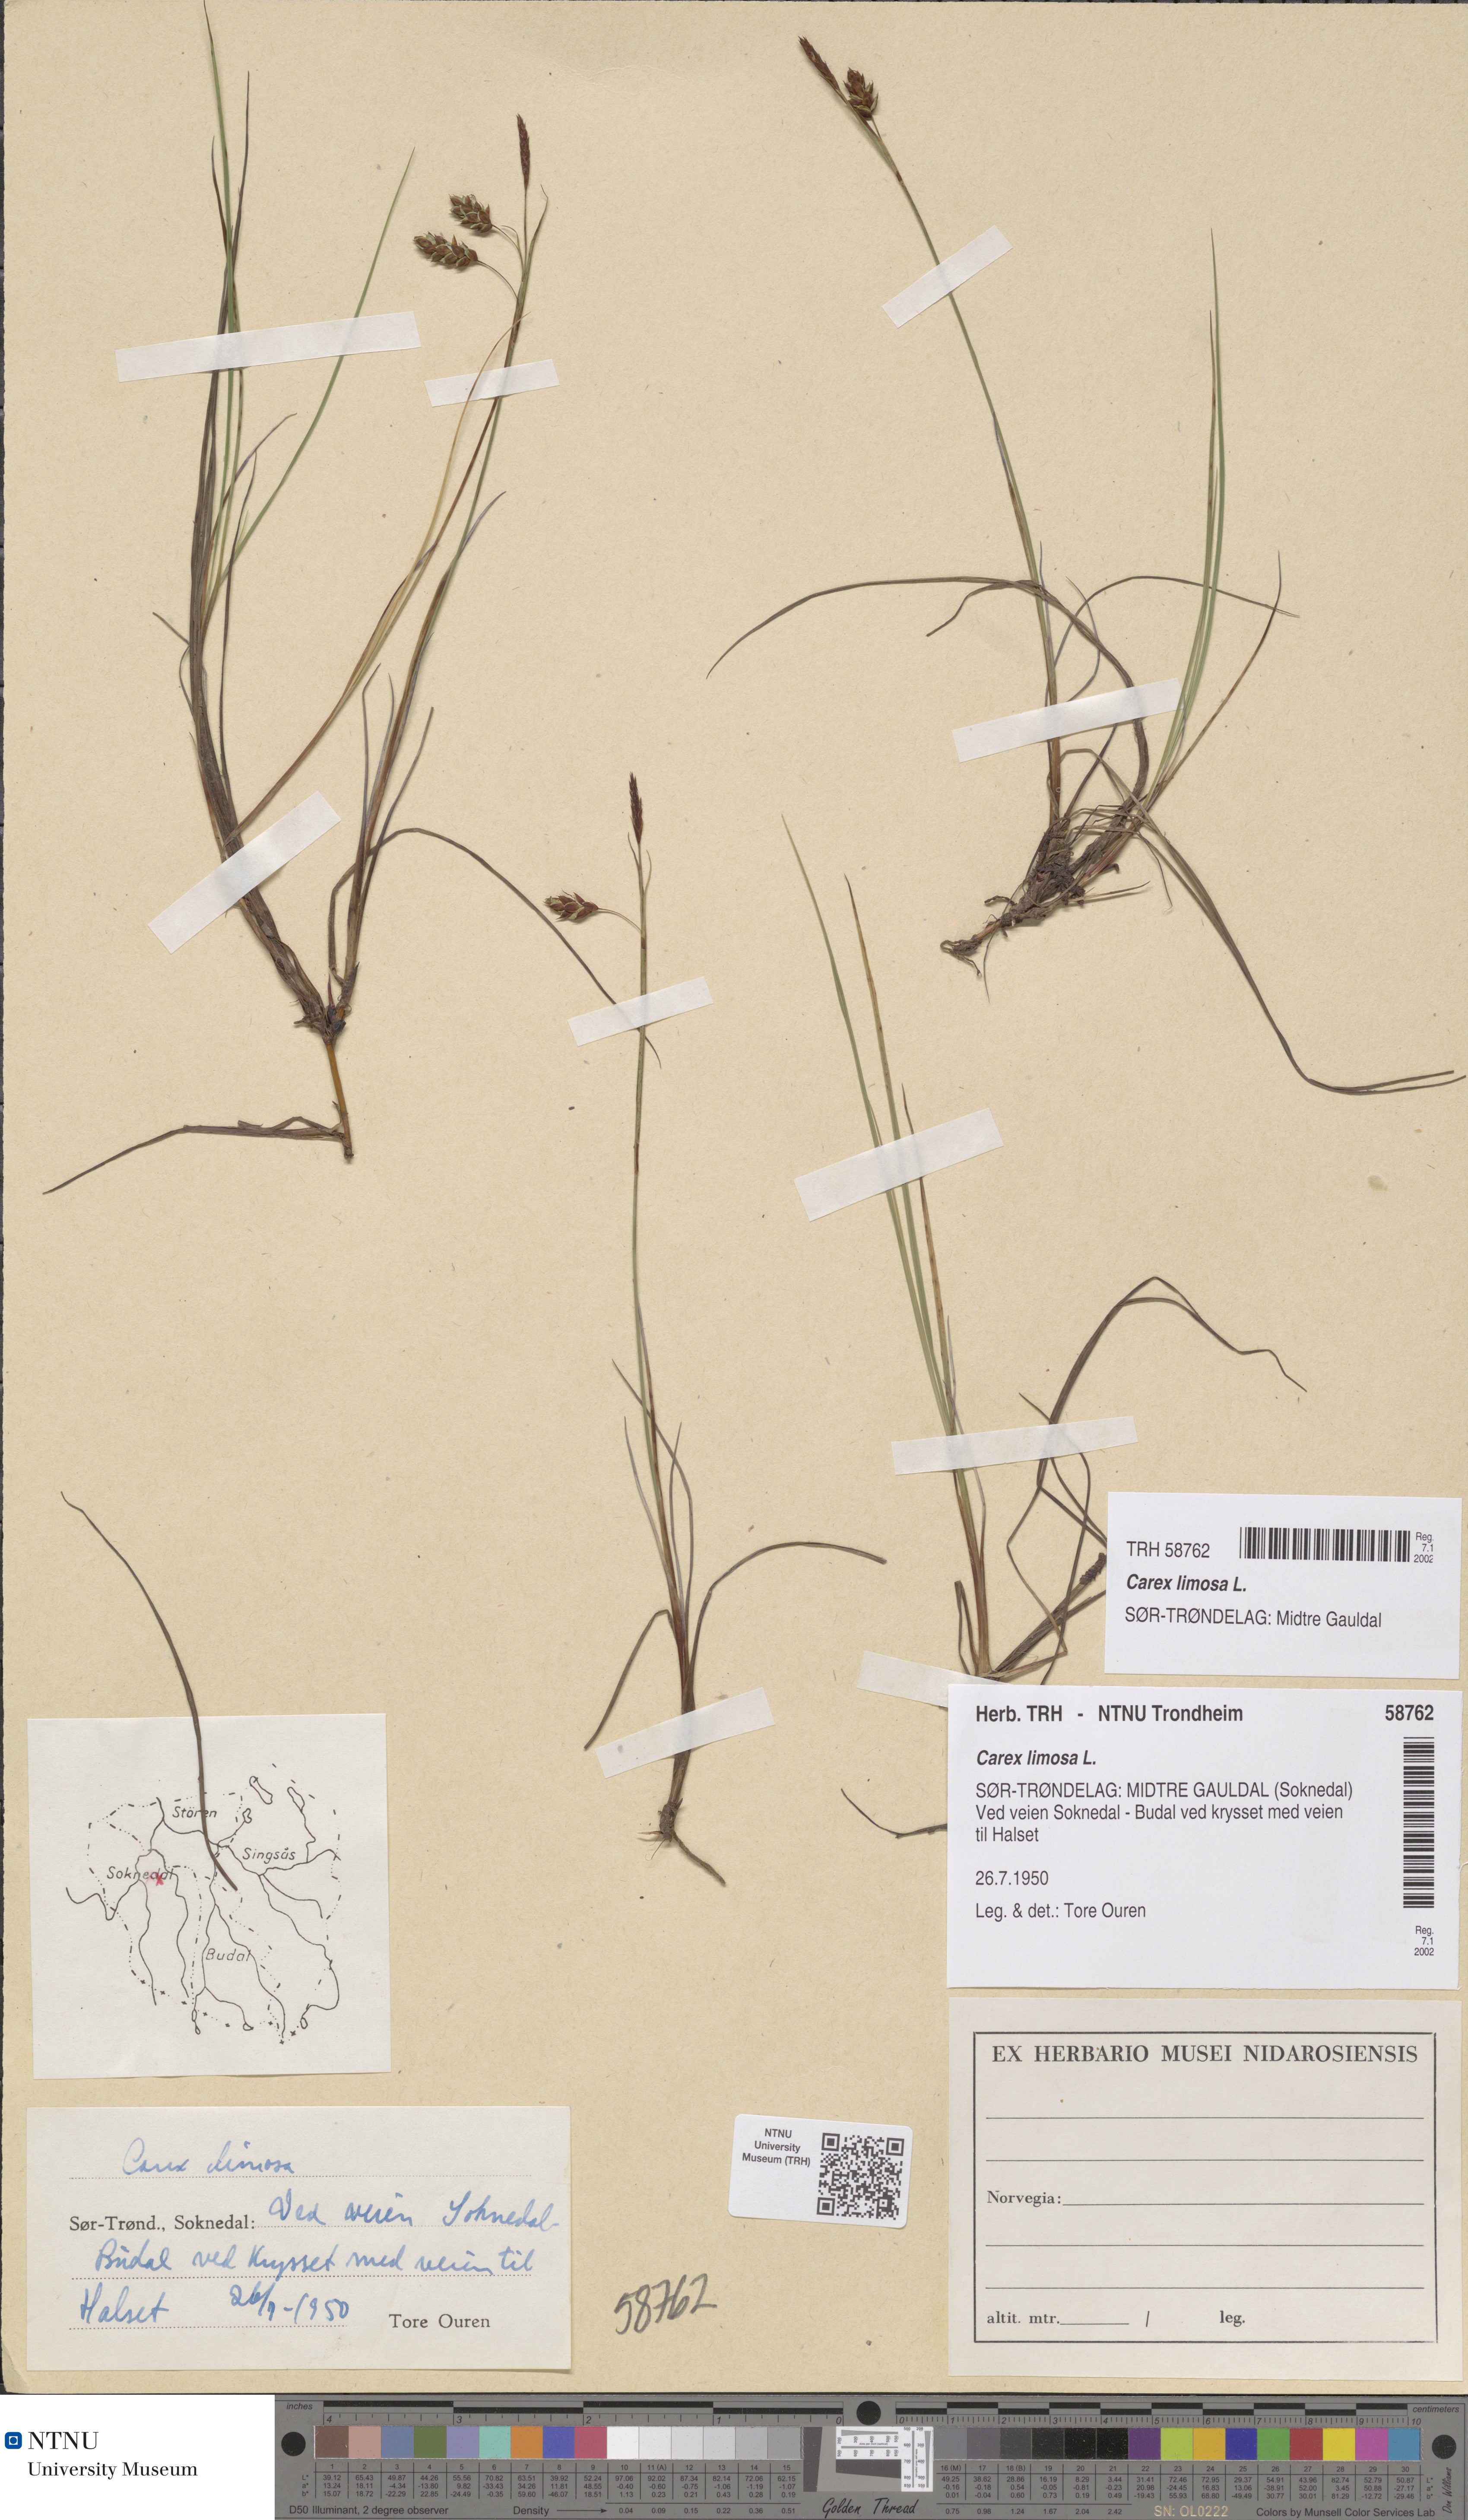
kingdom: Plantae
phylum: Tracheophyta
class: Liliopsida
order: Poales
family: Cyperaceae
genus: Carex
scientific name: Carex limosa
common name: Bog sedge
